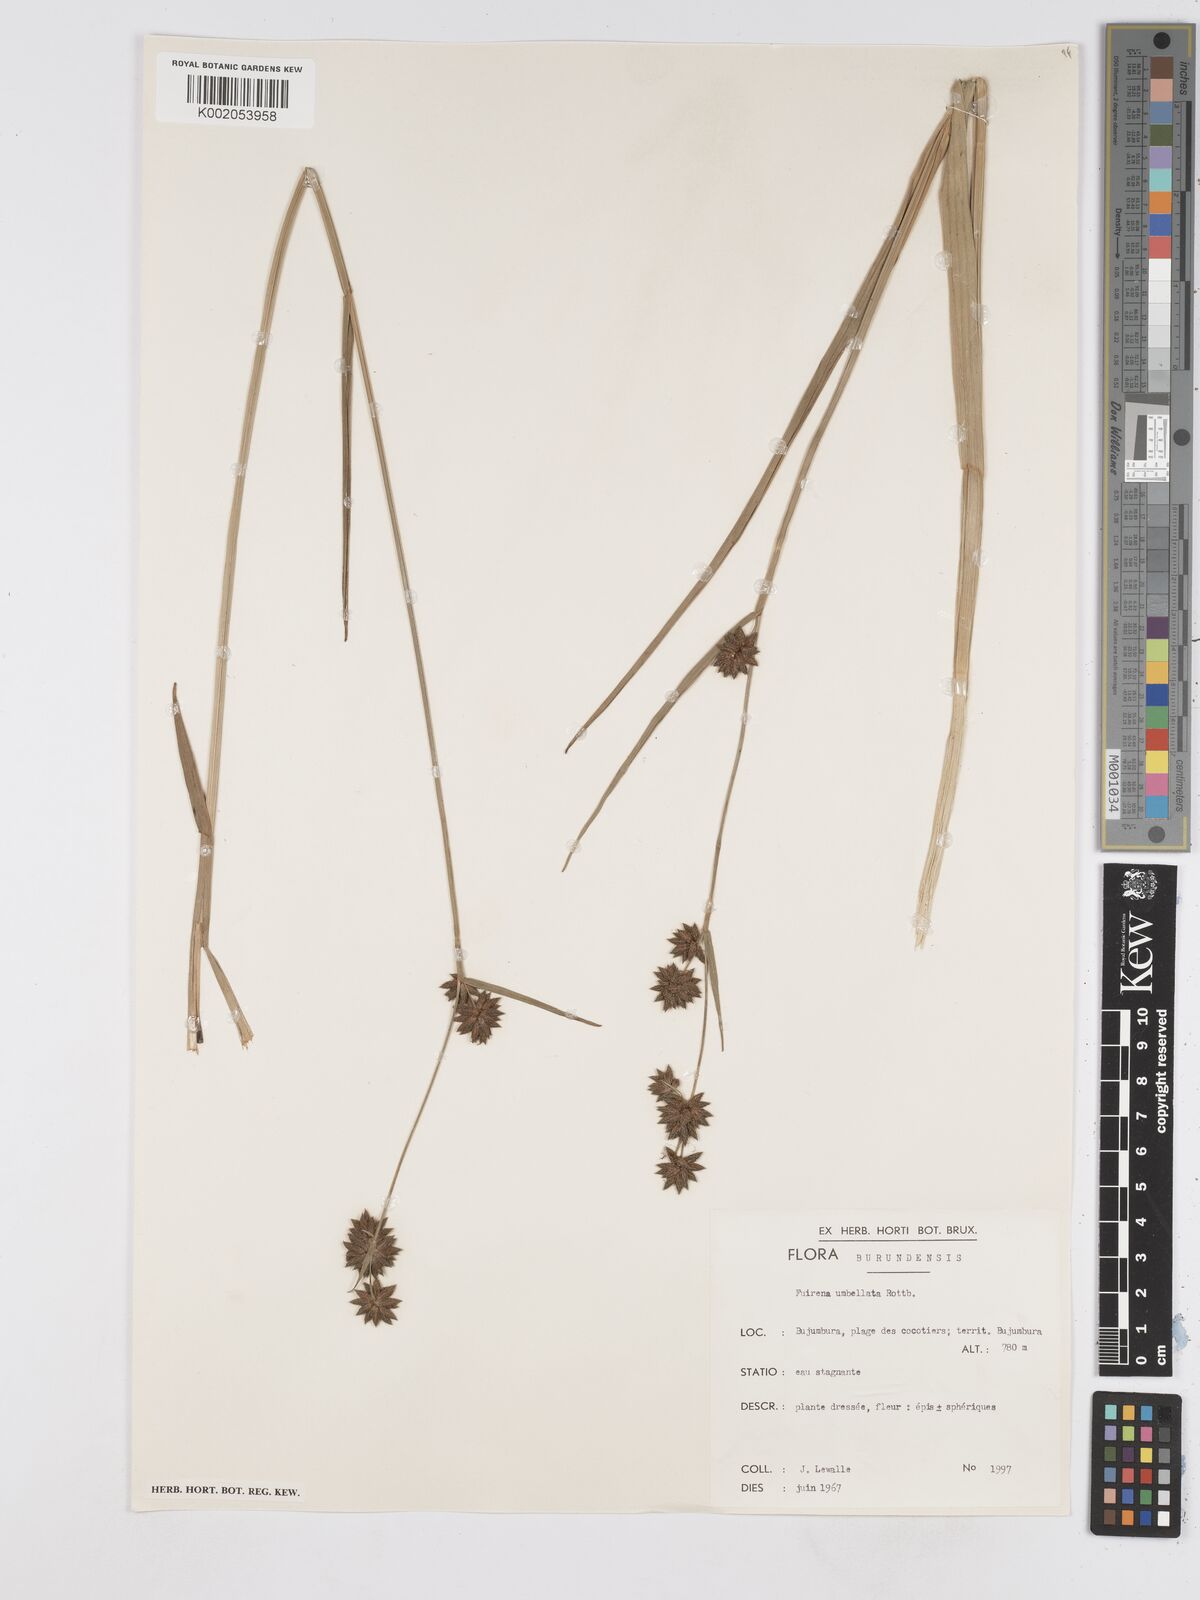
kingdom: Plantae
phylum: Tracheophyta
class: Liliopsida
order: Poales
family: Cyperaceae
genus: Fuirena
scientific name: Fuirena umbellata
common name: Yefen
